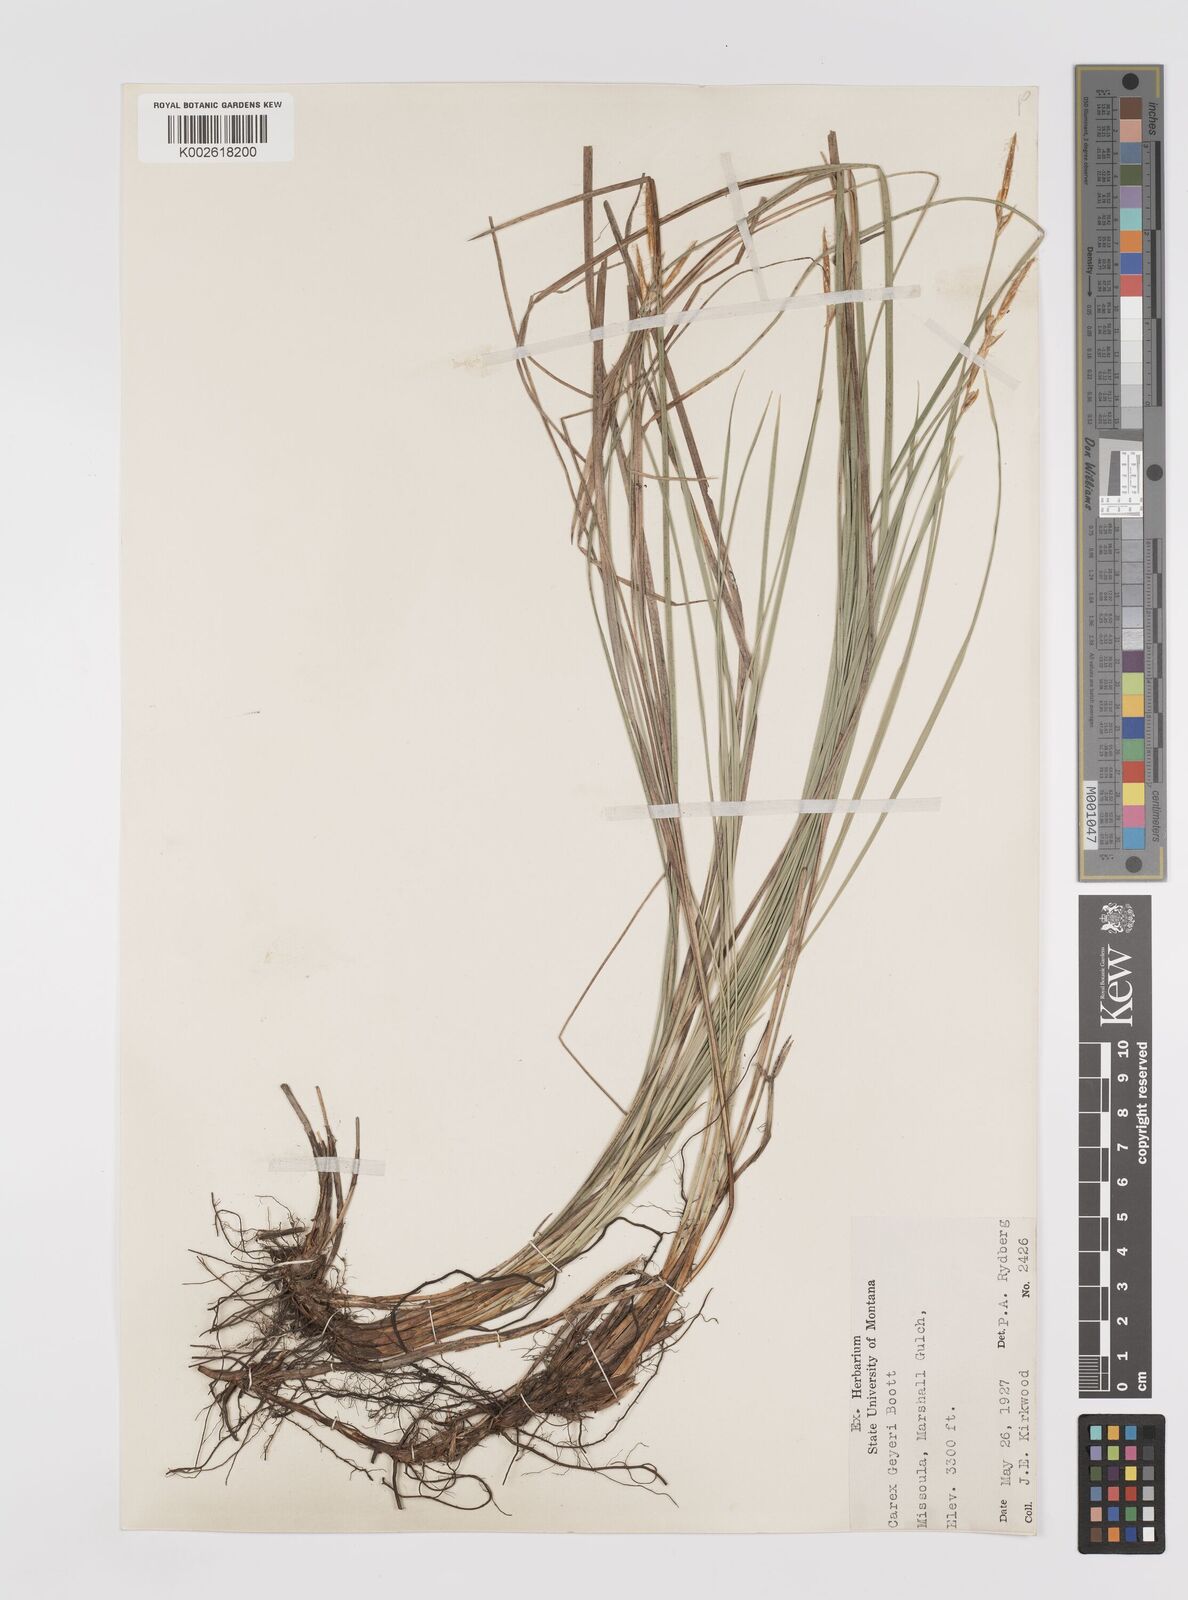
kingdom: Plantae
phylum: Tracheophyta
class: Liliopsida
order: Poales
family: Cyperaceae
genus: Carex
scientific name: Carex geyeri
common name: Elk sedge
